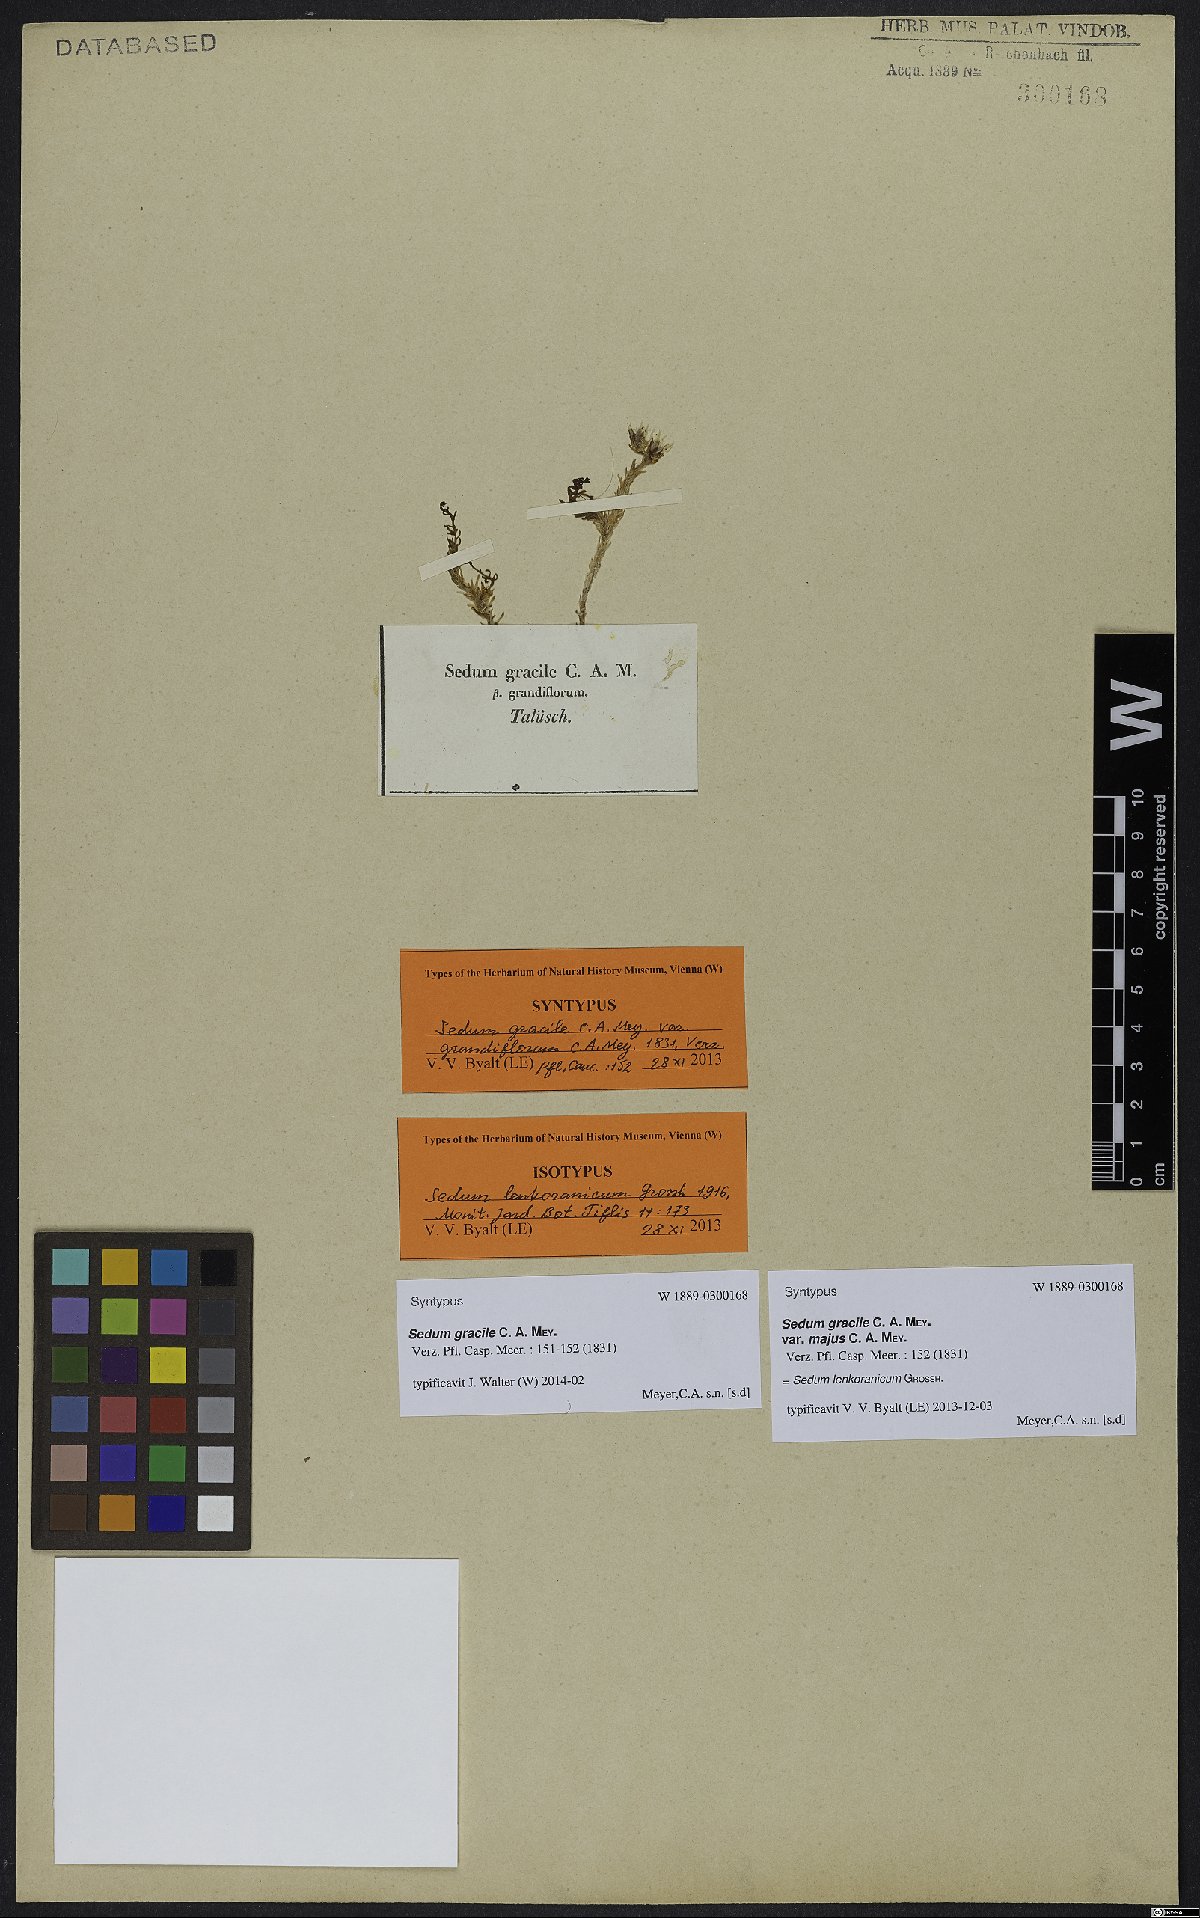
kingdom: Plantae
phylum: Tracheophyta
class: Magnoliopsida
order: Saxifragales
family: Crassulaceae
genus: Sedum
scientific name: Sedum lenkoranicum
